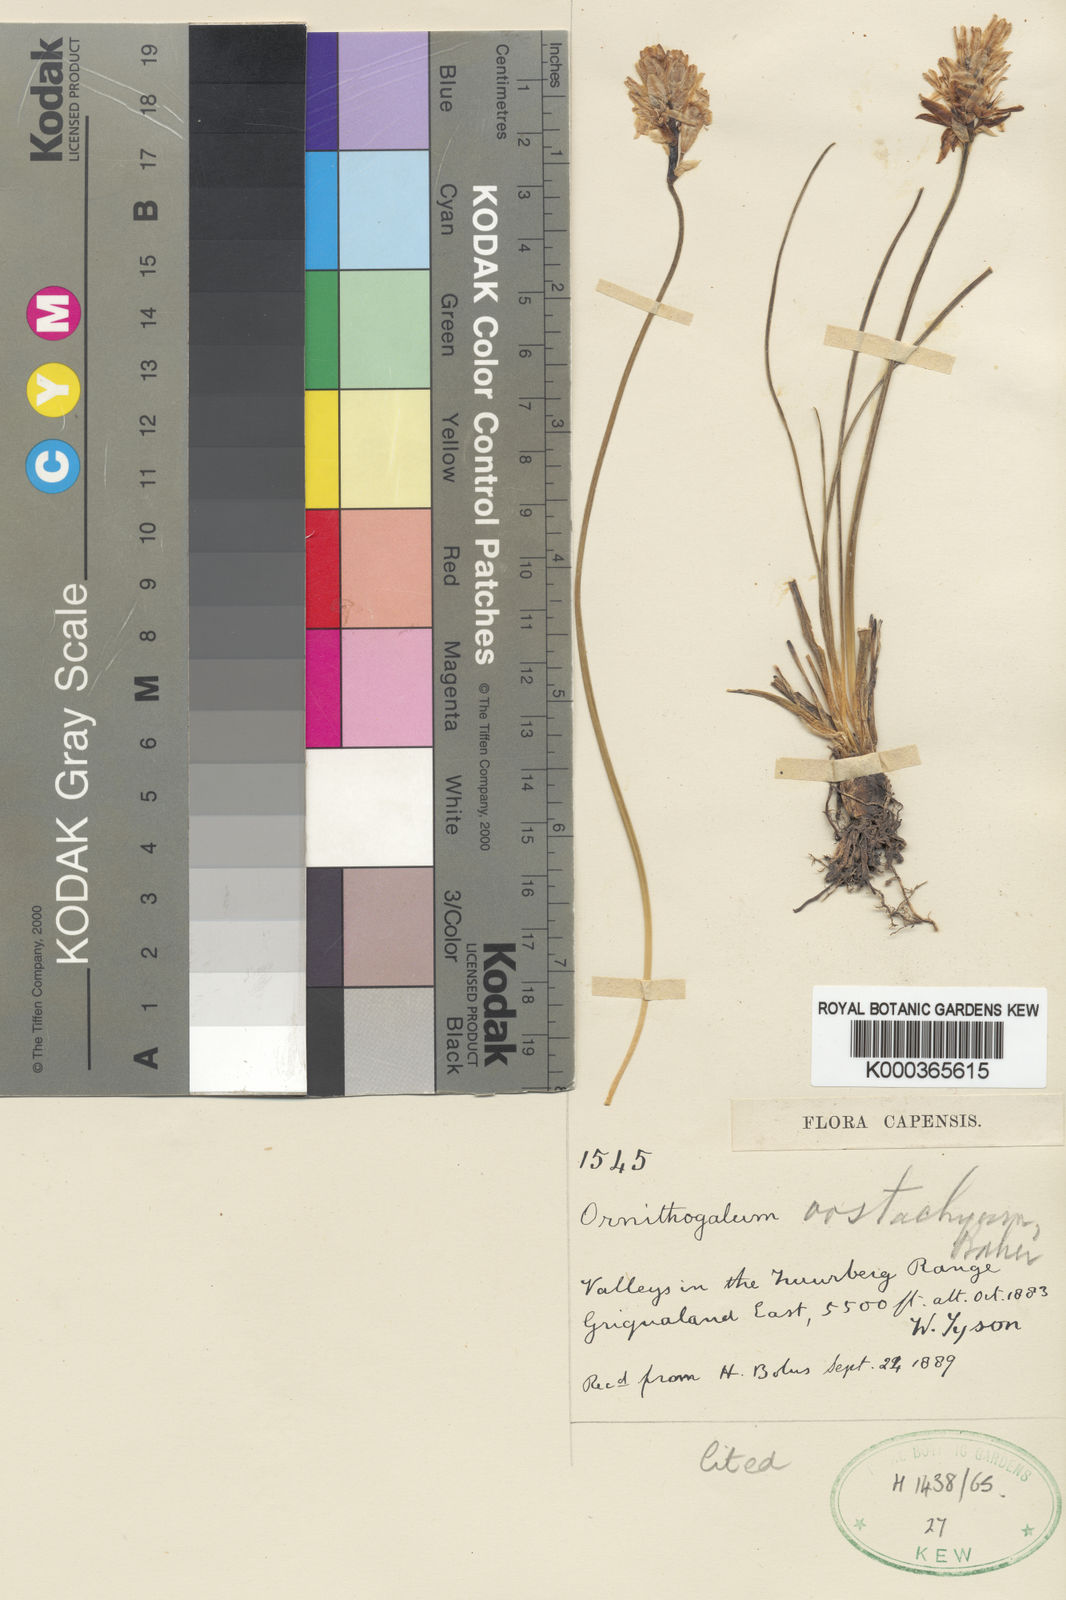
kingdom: Plantae
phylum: Tracheophyta
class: Liliopsida
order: Asparagales
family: Asparagaceae
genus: Ornithogalum
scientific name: Ornithogalum paludosum
